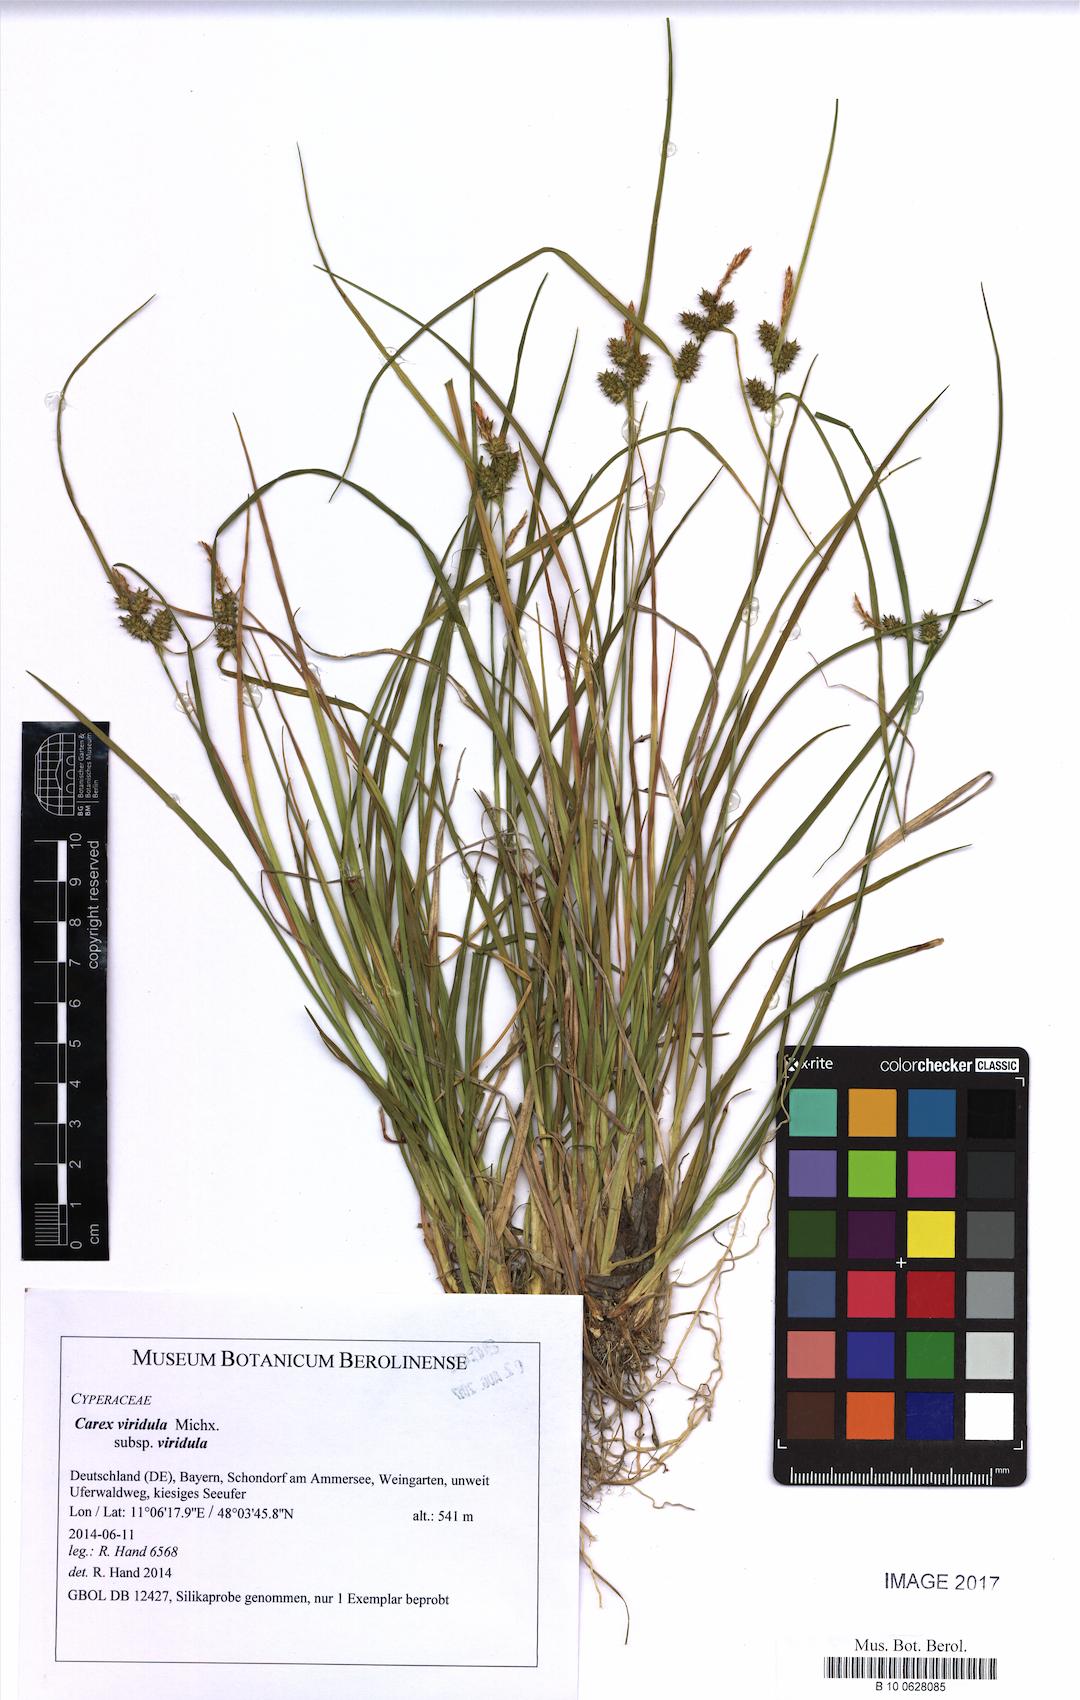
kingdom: Plantae
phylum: Tracheophyta
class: Liliopsida
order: Poales
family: Cyperaceae
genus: Carex
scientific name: Carex oederi
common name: Common & small-fruited yellow-sedge
